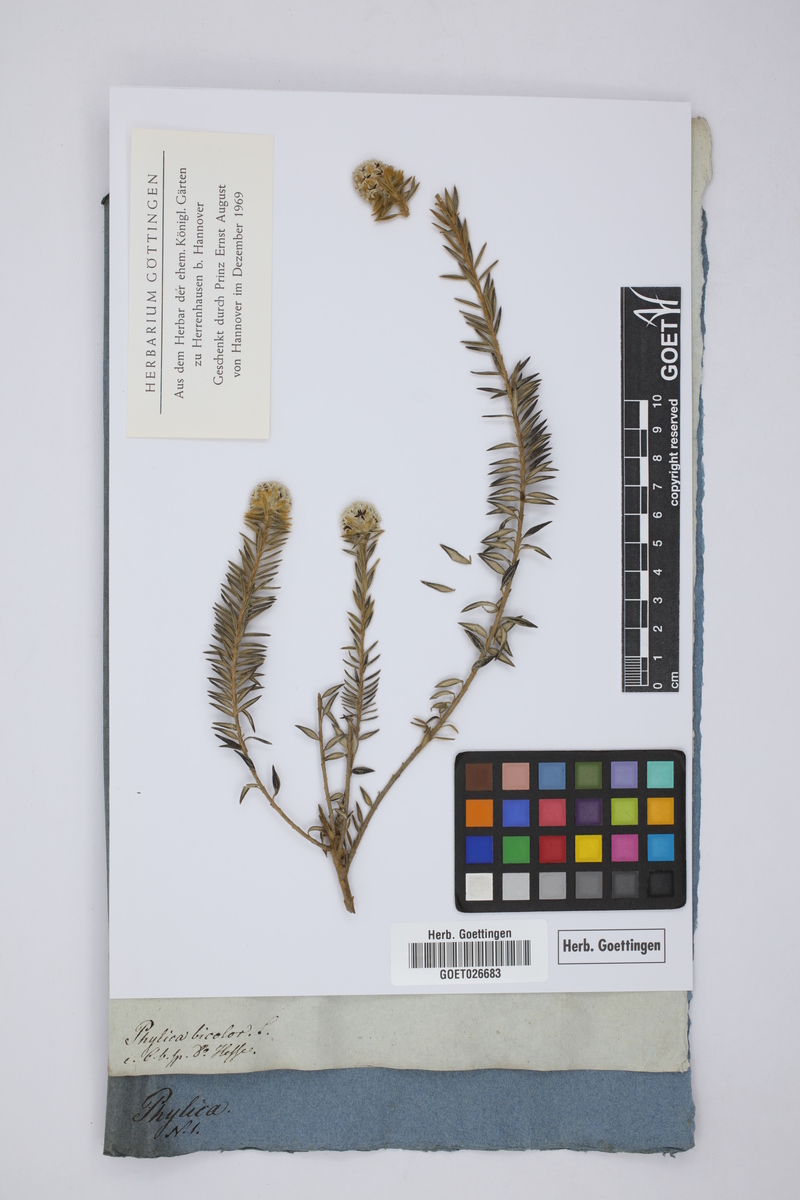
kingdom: Plantae
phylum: Tracheophyta
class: Magnoliopsida
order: Rosales
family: Rhamnaceae
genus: Phylica
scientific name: Phylica strigosa
